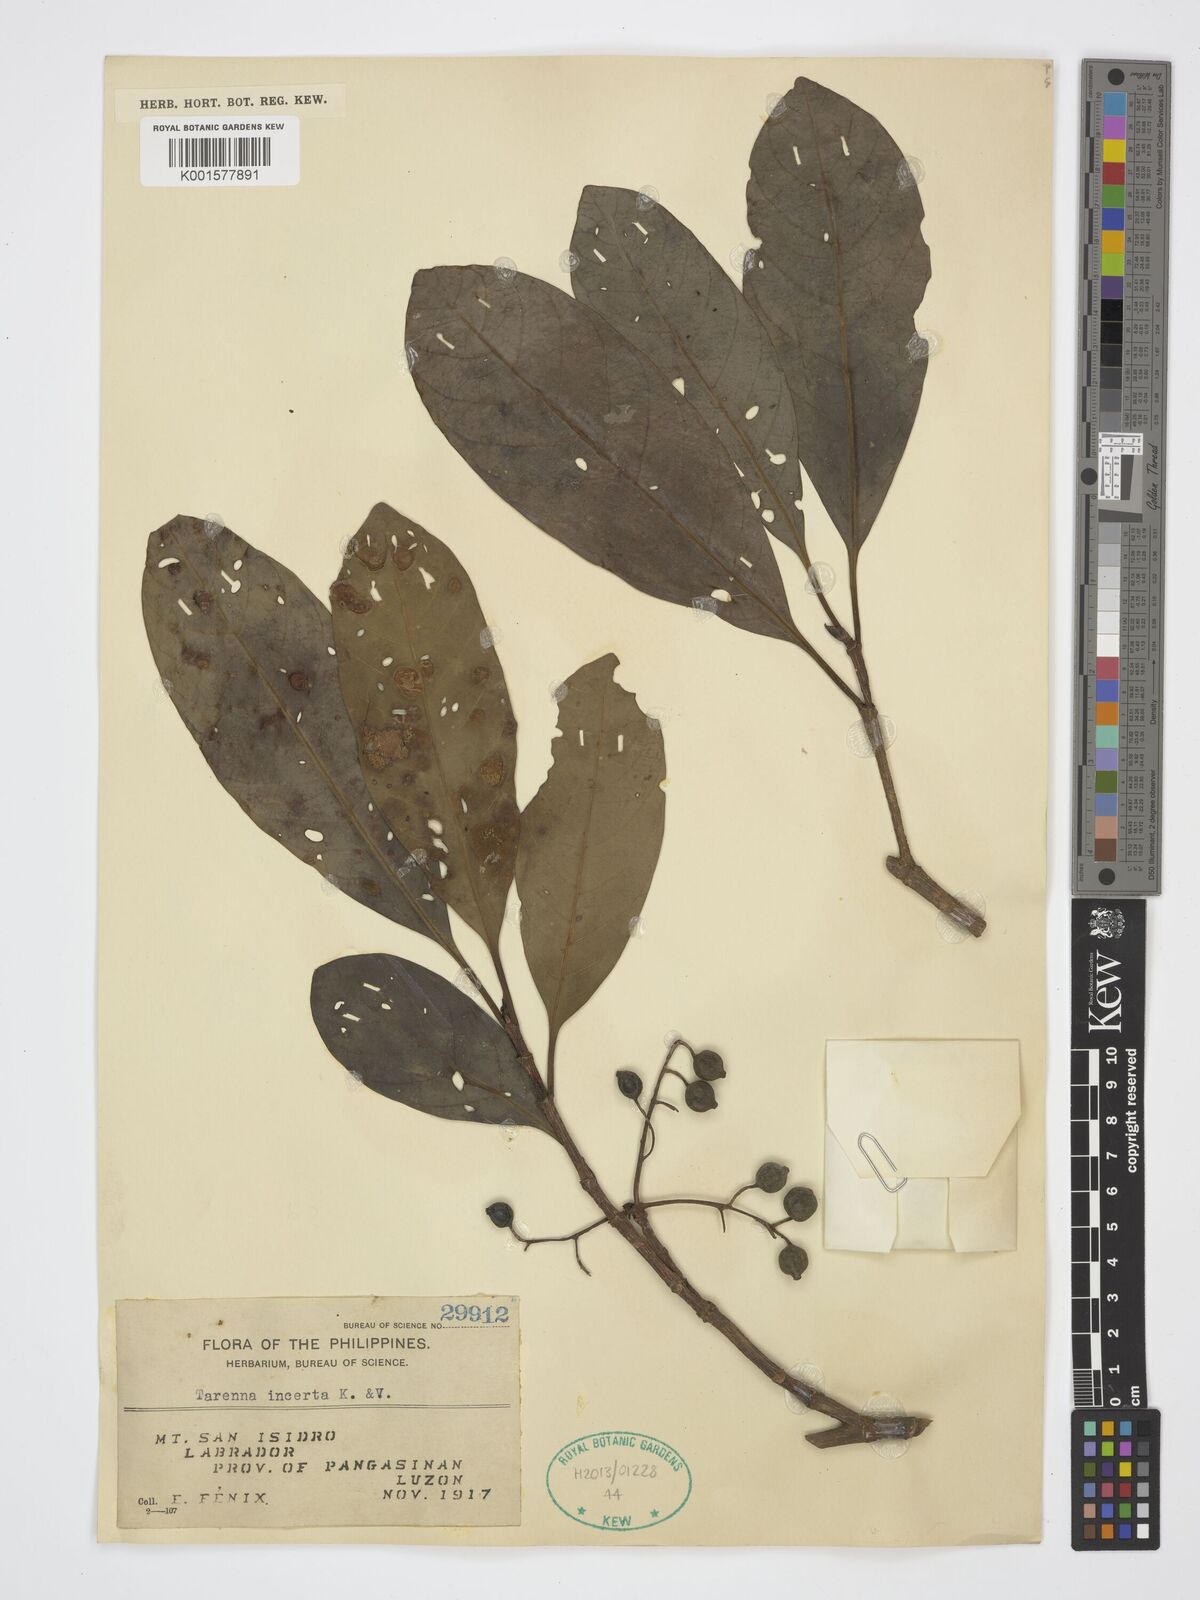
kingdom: Plantae
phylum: Tracheophyta
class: Magnoliopsida
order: Gentianales
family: Rubiaceae
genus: Tarennoidea
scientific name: Tarennoidea wallichii
